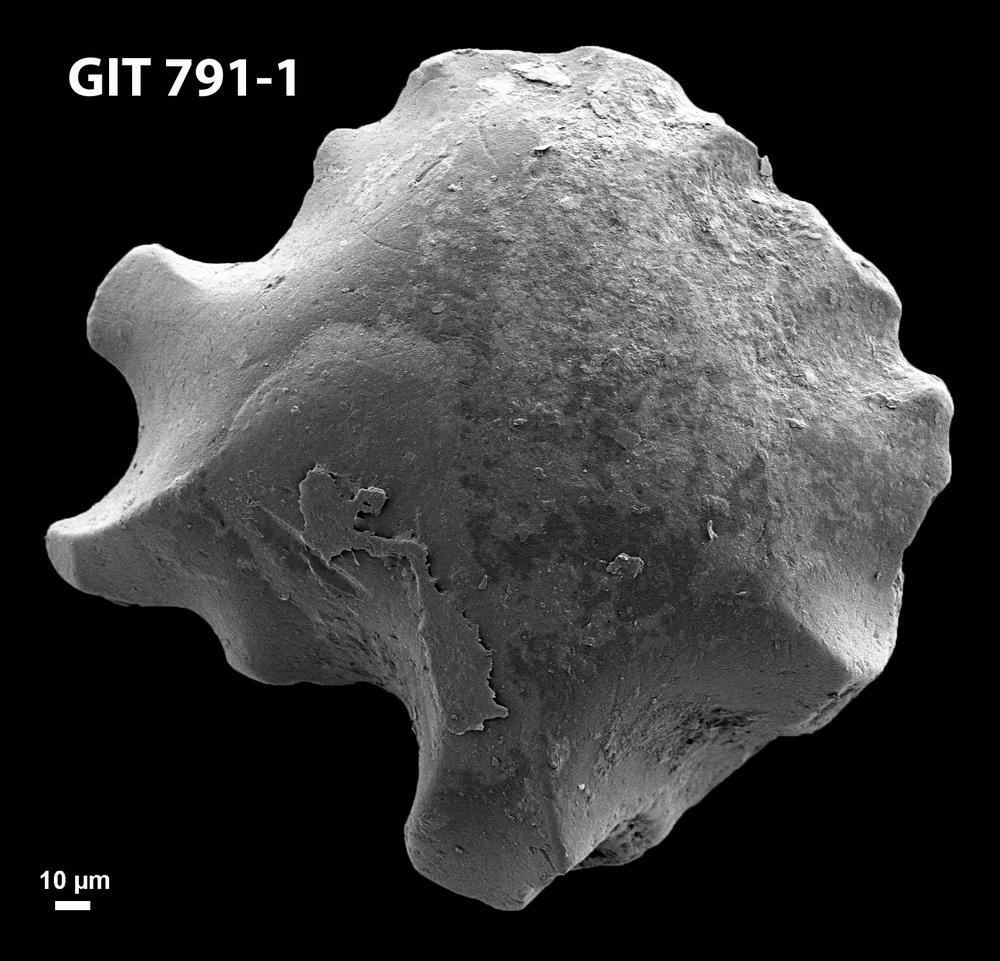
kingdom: Animalia
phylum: Chordata
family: Thelodontidae
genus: Thelodus
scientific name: Thelodus parvidens
